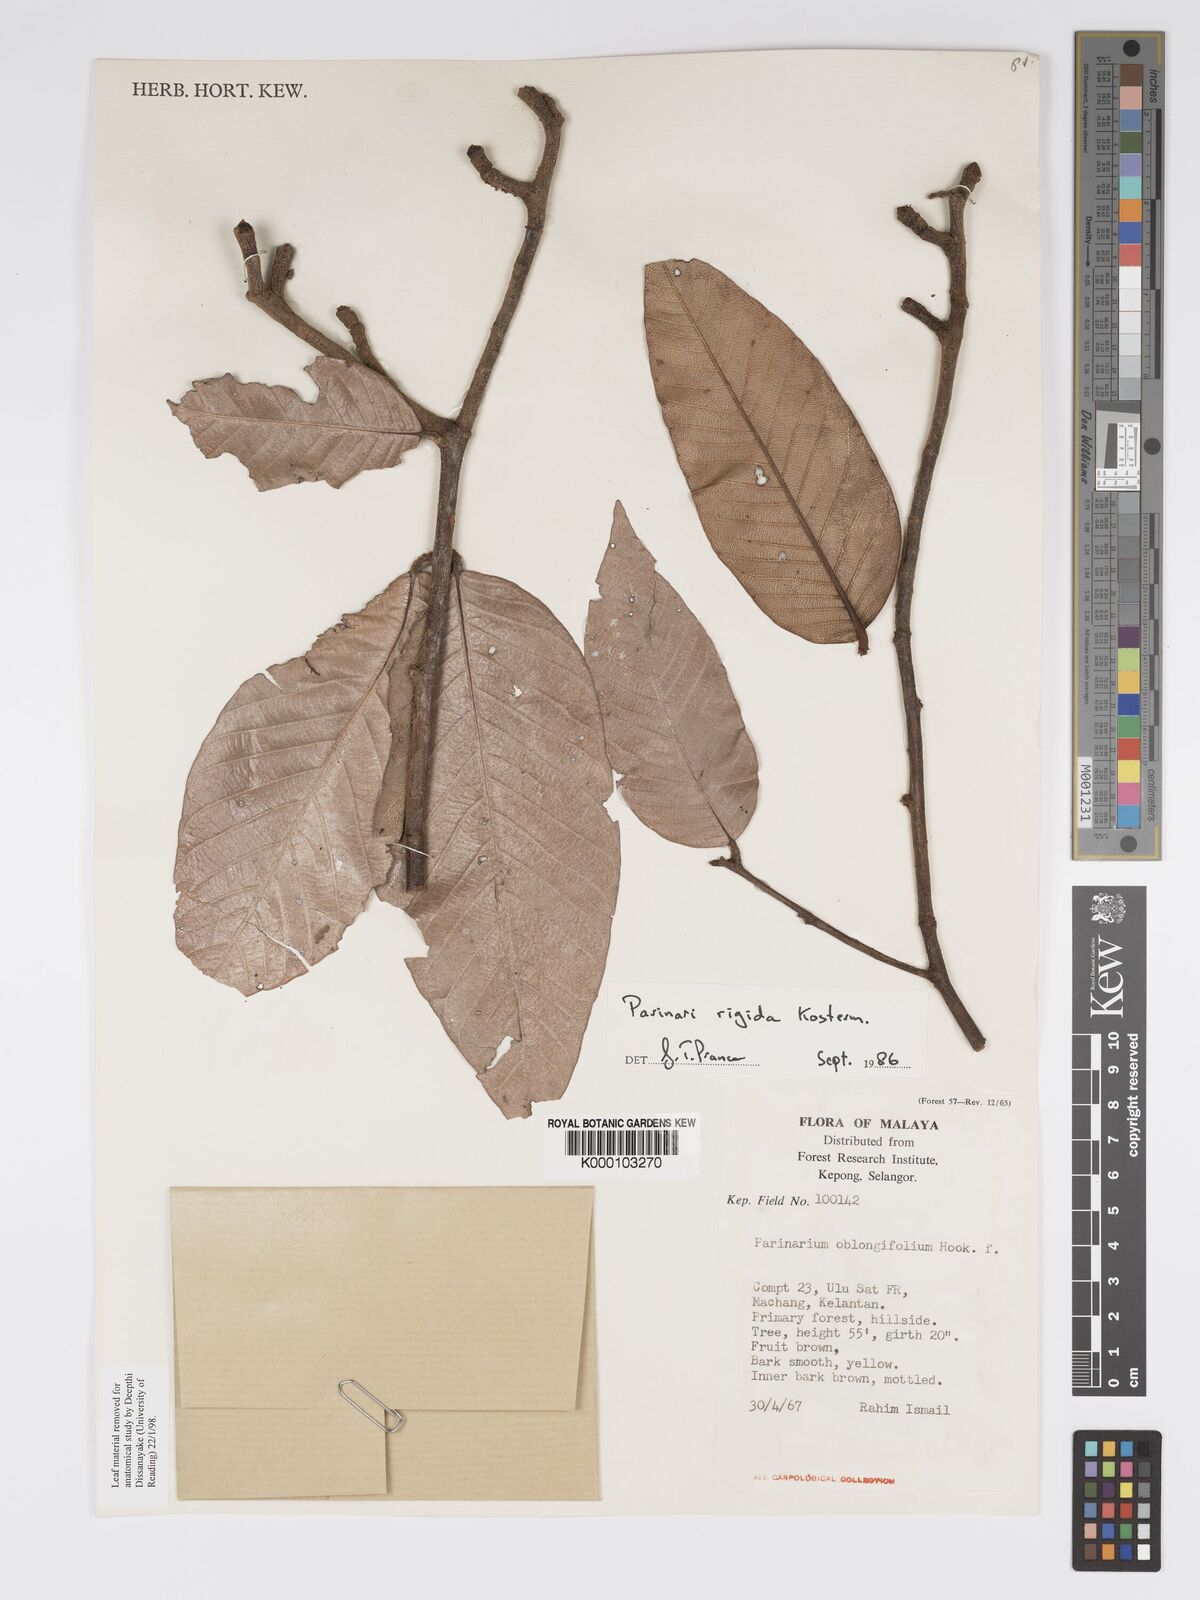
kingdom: Plantae
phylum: Tracheophyta
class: Magnoliopsida
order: Malpighiales
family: Chrysobalanaceae
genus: Parinari
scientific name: Parinari rigida
